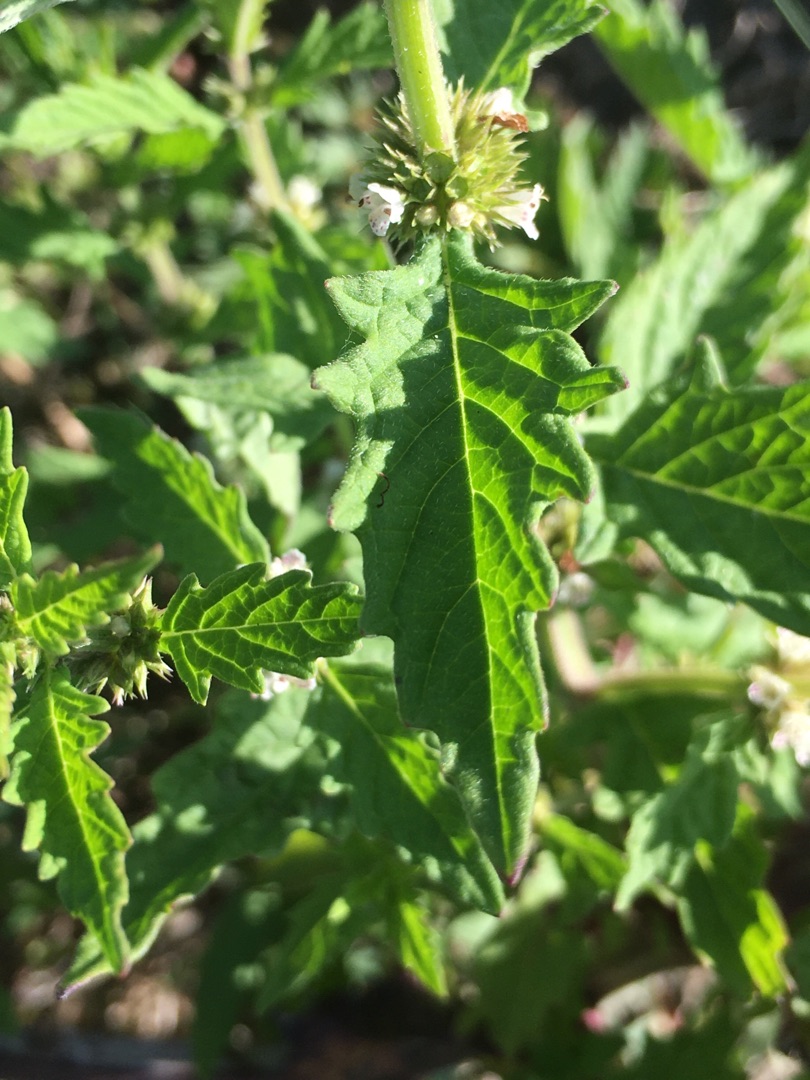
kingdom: Plantae
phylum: Tracheophyta
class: Magnoliopsida
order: Lamiales
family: Lamiaceae
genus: Lycopus
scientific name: Lycopus europaeus
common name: Sværtevæld
